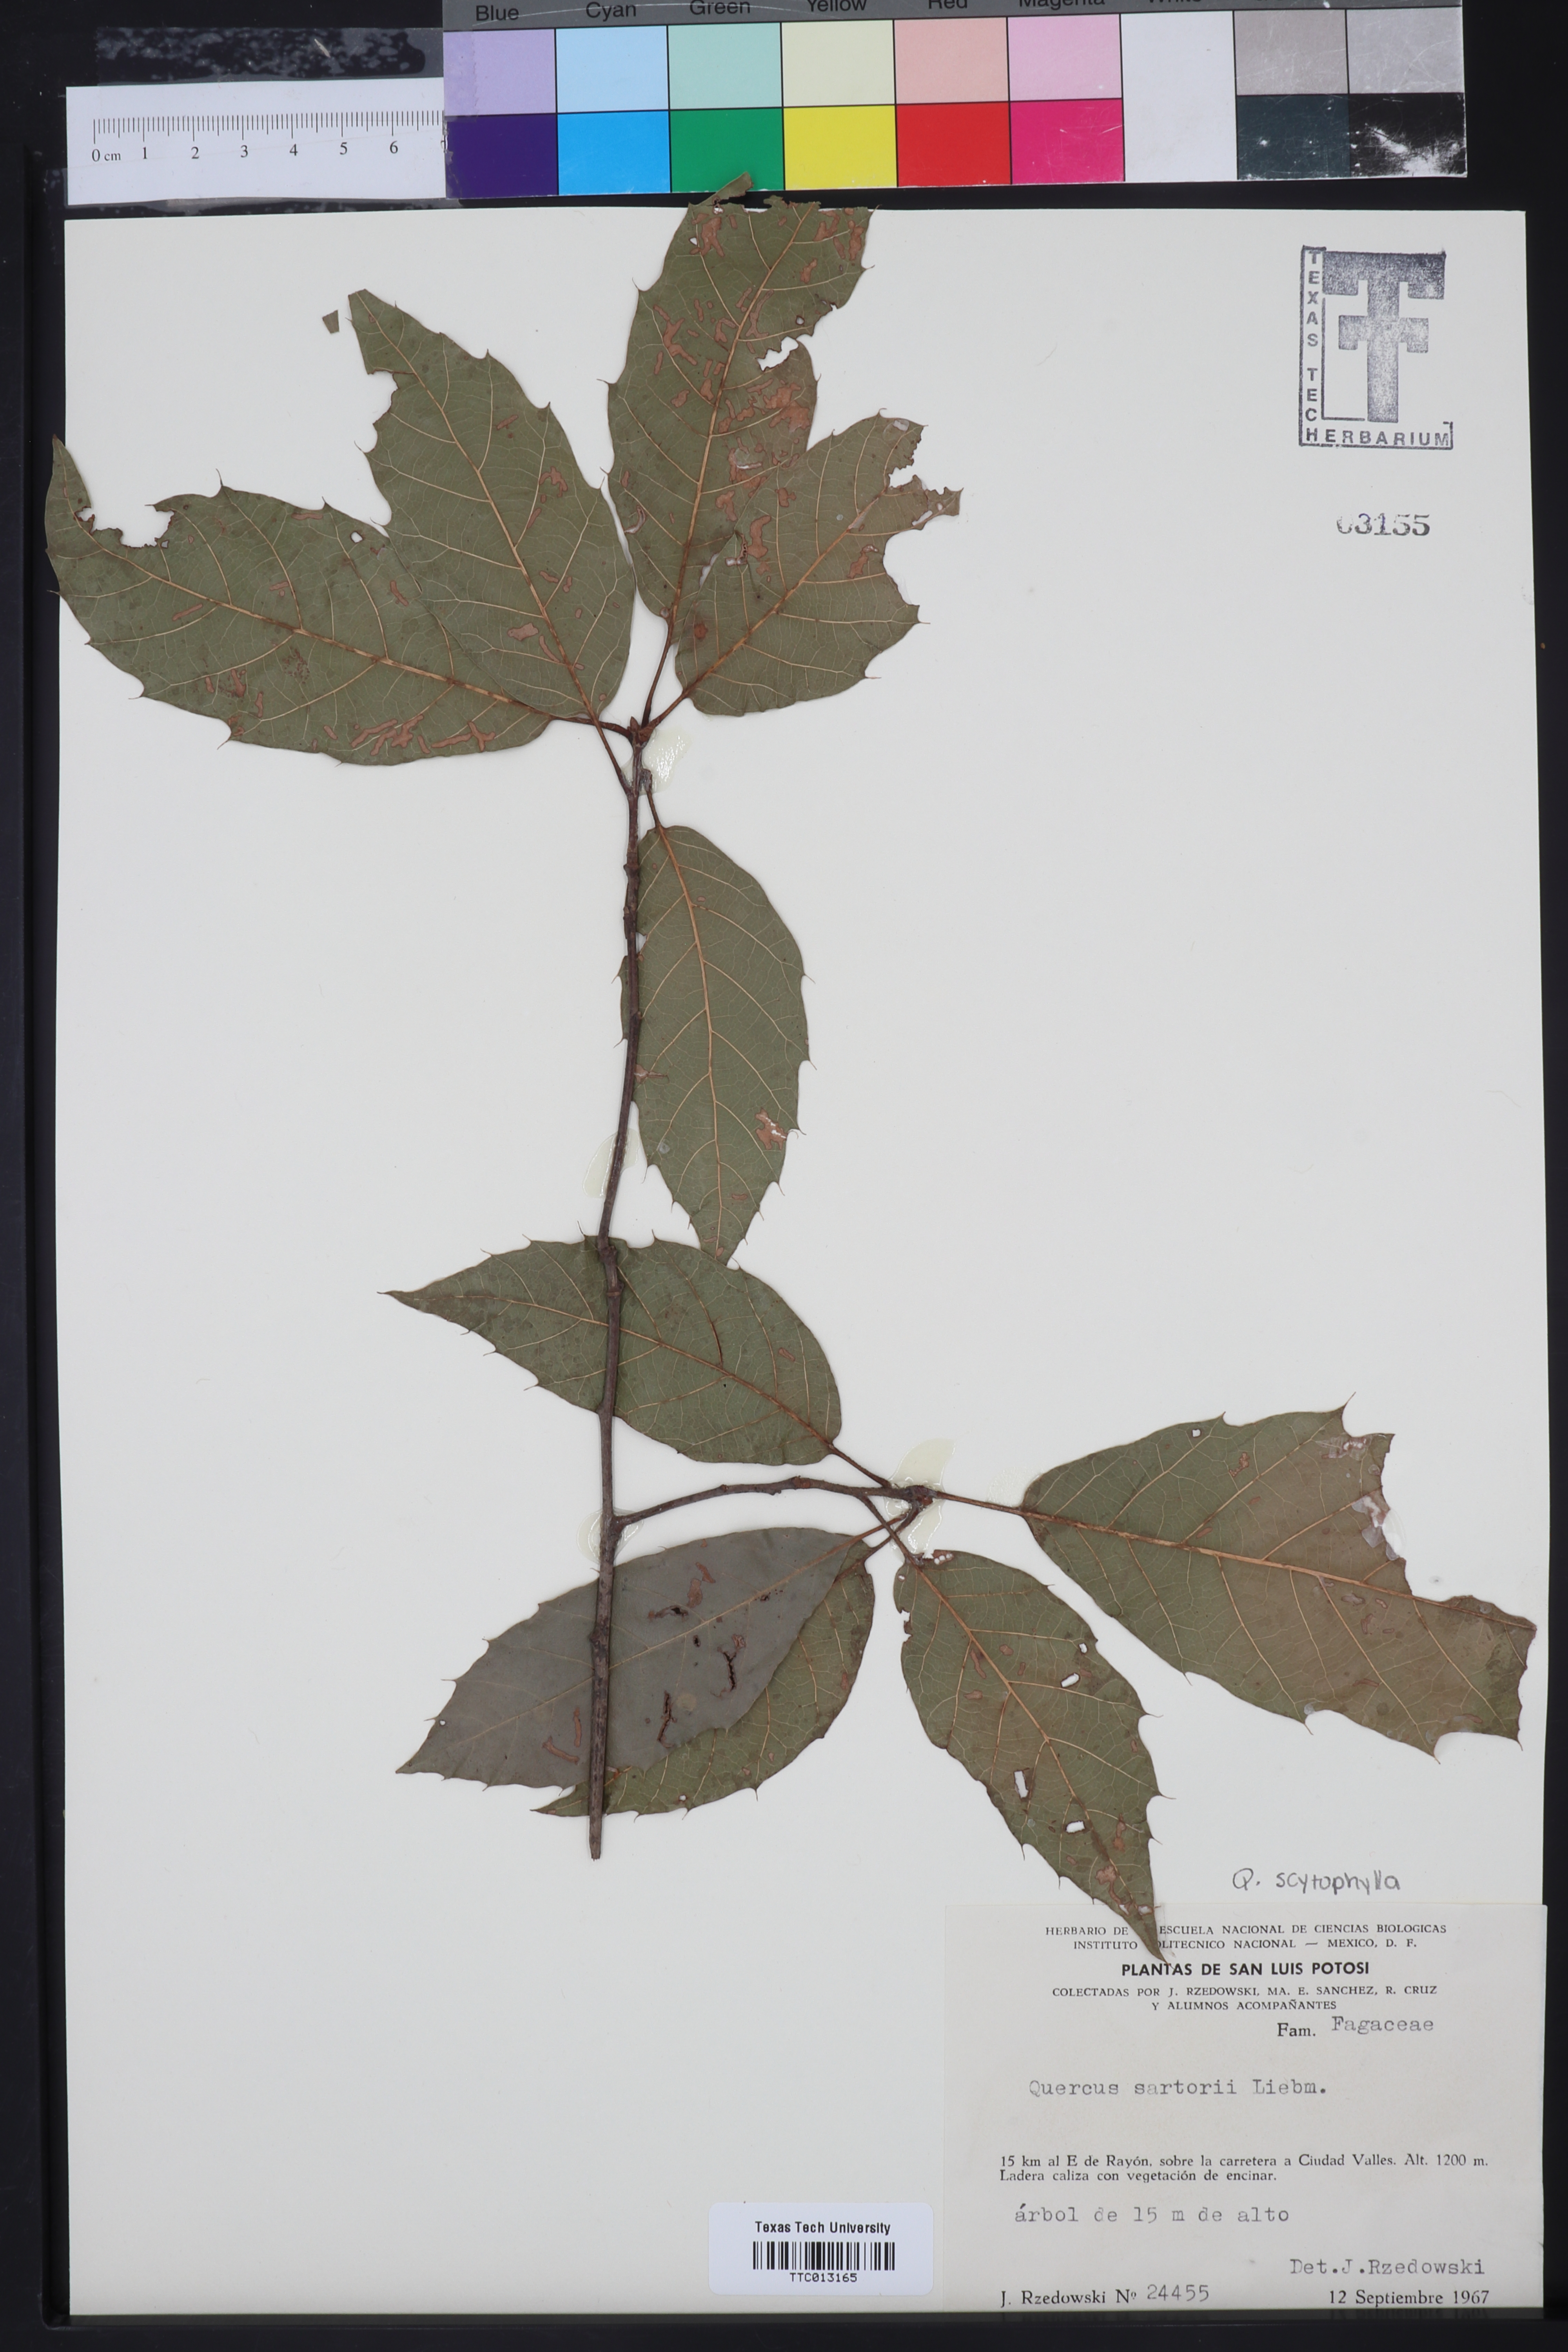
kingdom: Plantae
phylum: Tracheophyta
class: Magnoliopsida
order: Fagales
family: Fagaceae
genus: Quercus
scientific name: Quercus sartorii
